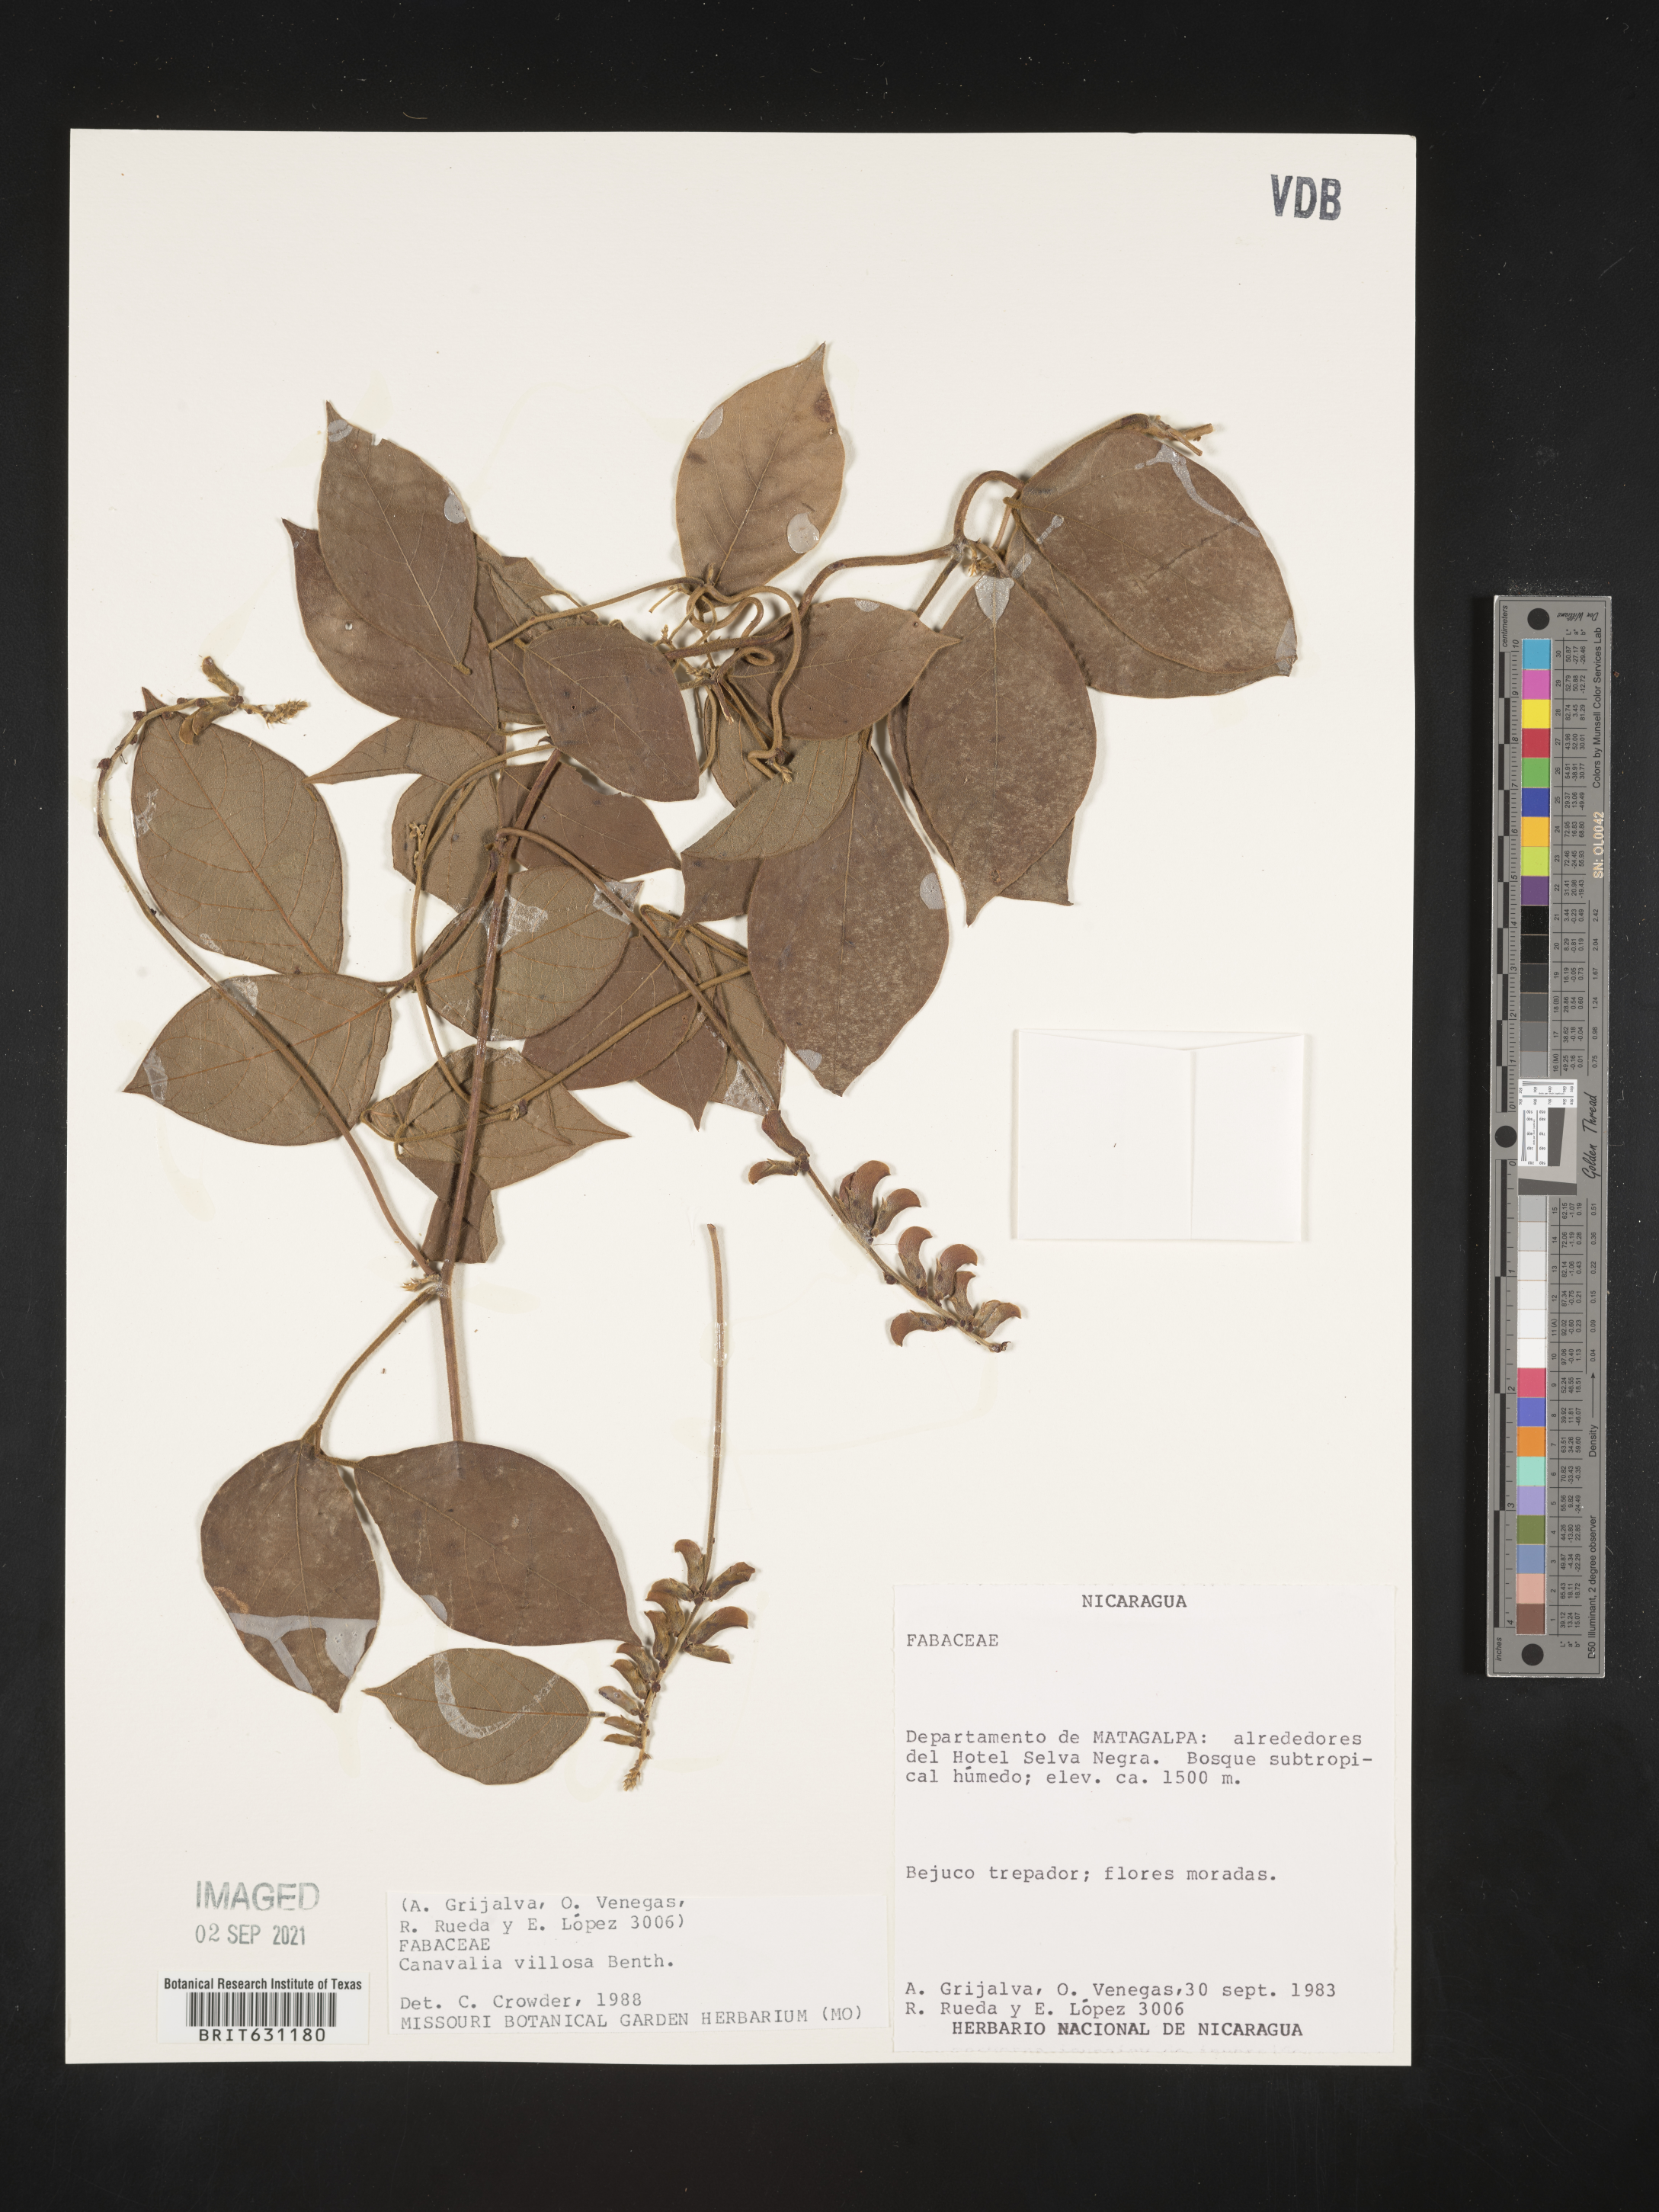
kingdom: Plantae
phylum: Tracheophyta
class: Magnoliopsida
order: Fabales
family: Fabaceae
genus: Canavalia
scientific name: Canavalia villosa
